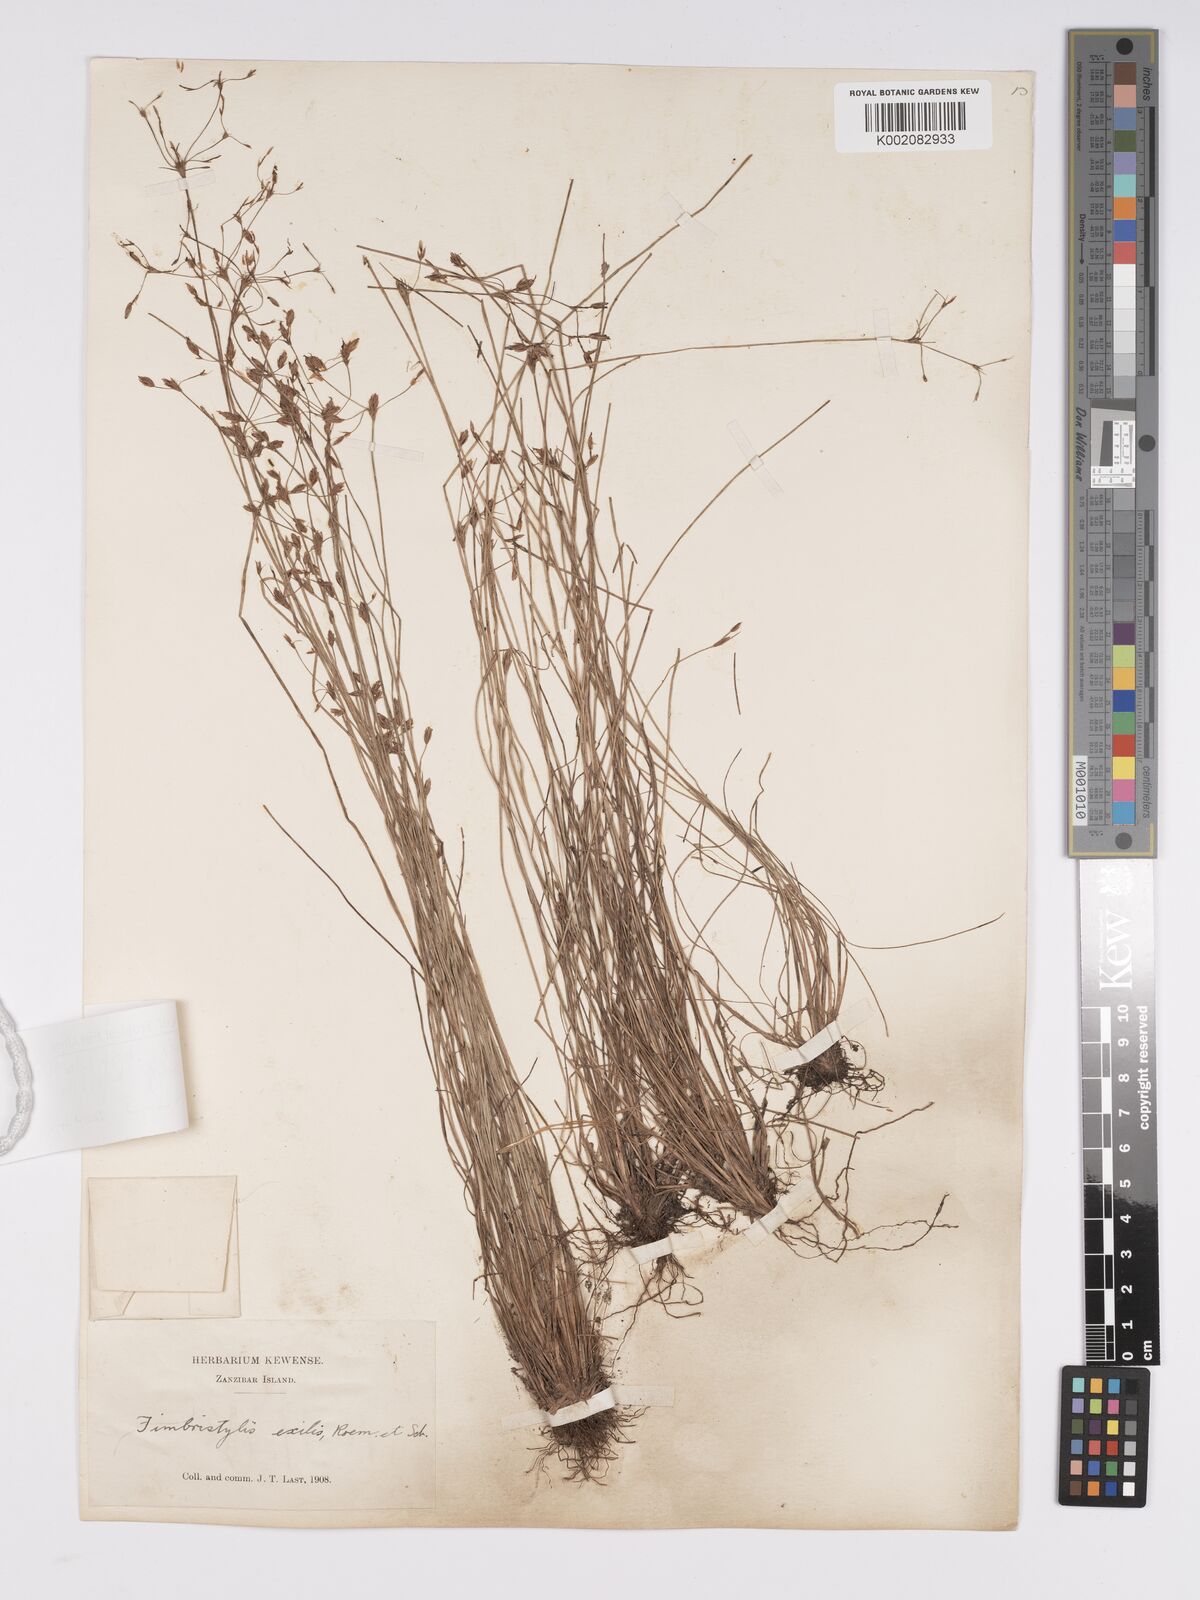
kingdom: Plantae
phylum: Tracheophyta
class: Liliopsida
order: Poales
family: Cyperaceae
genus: Bulbostylis
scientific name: Bulbostylis hispidula
